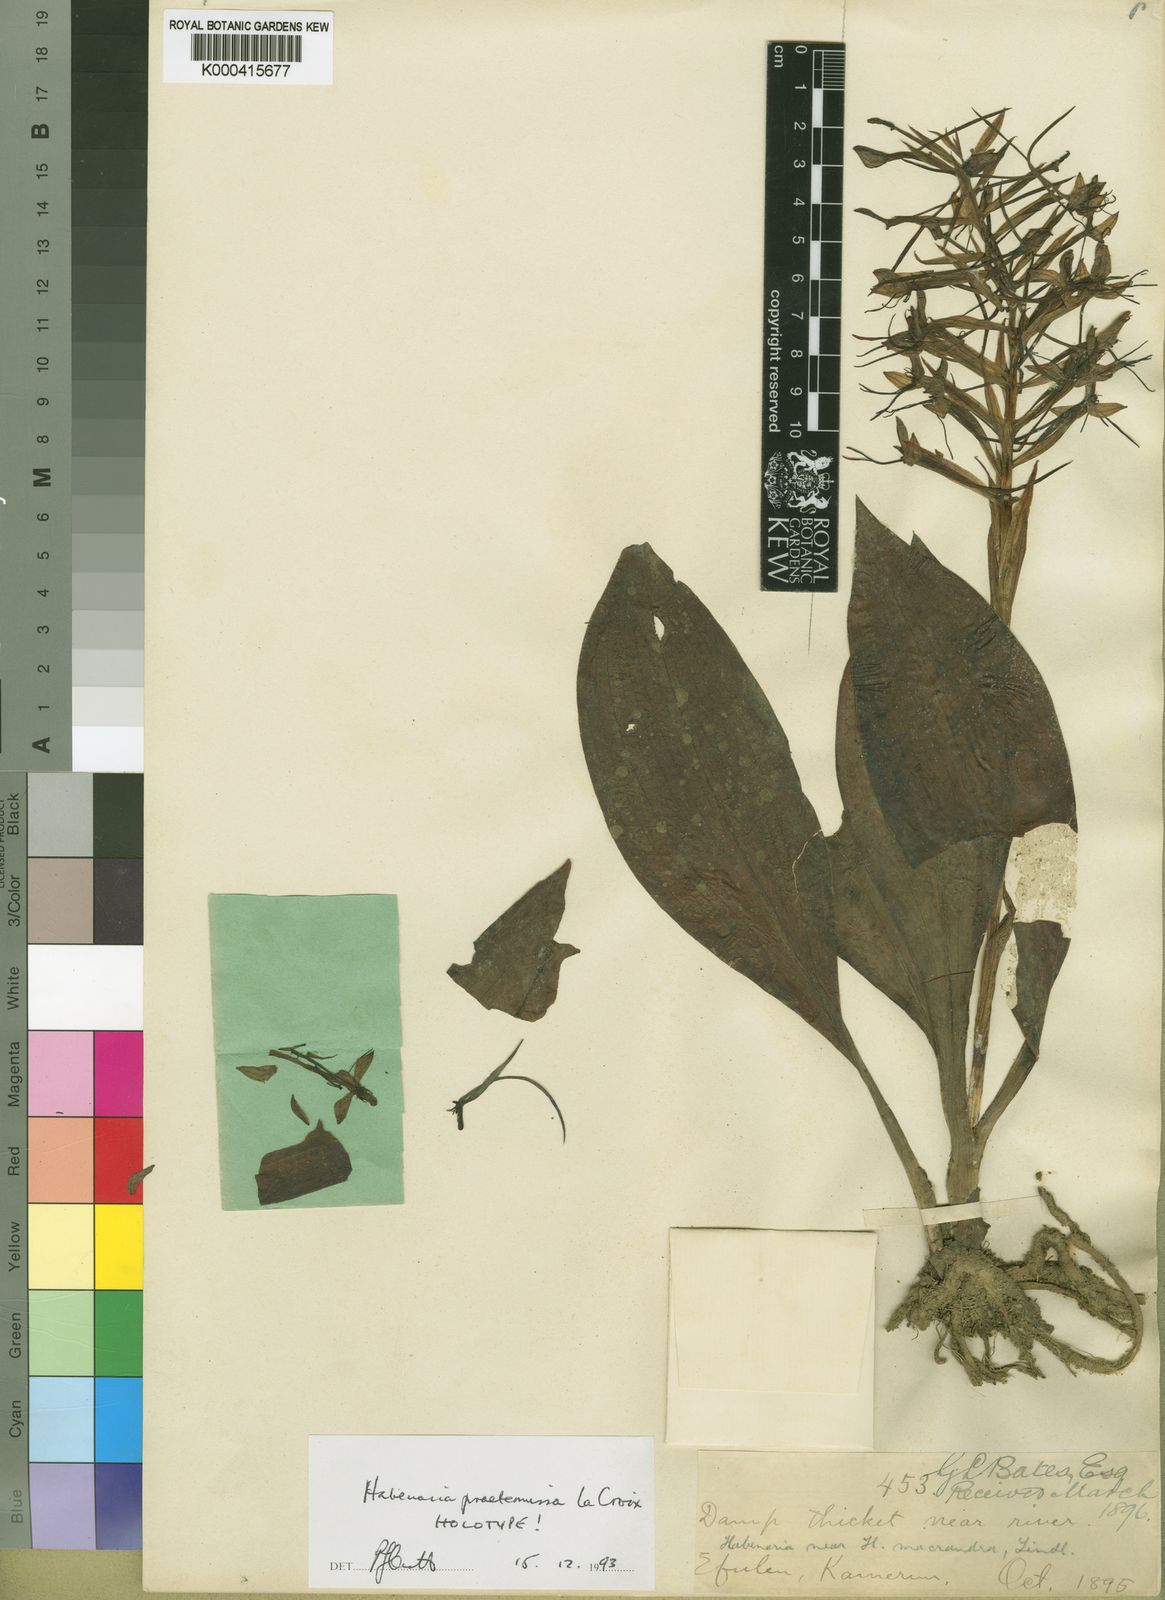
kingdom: Plantae
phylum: Tracheophyta
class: Liliopsida
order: Asparagales
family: Orchidaceae
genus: Habenaria
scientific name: Habenaria batesii
